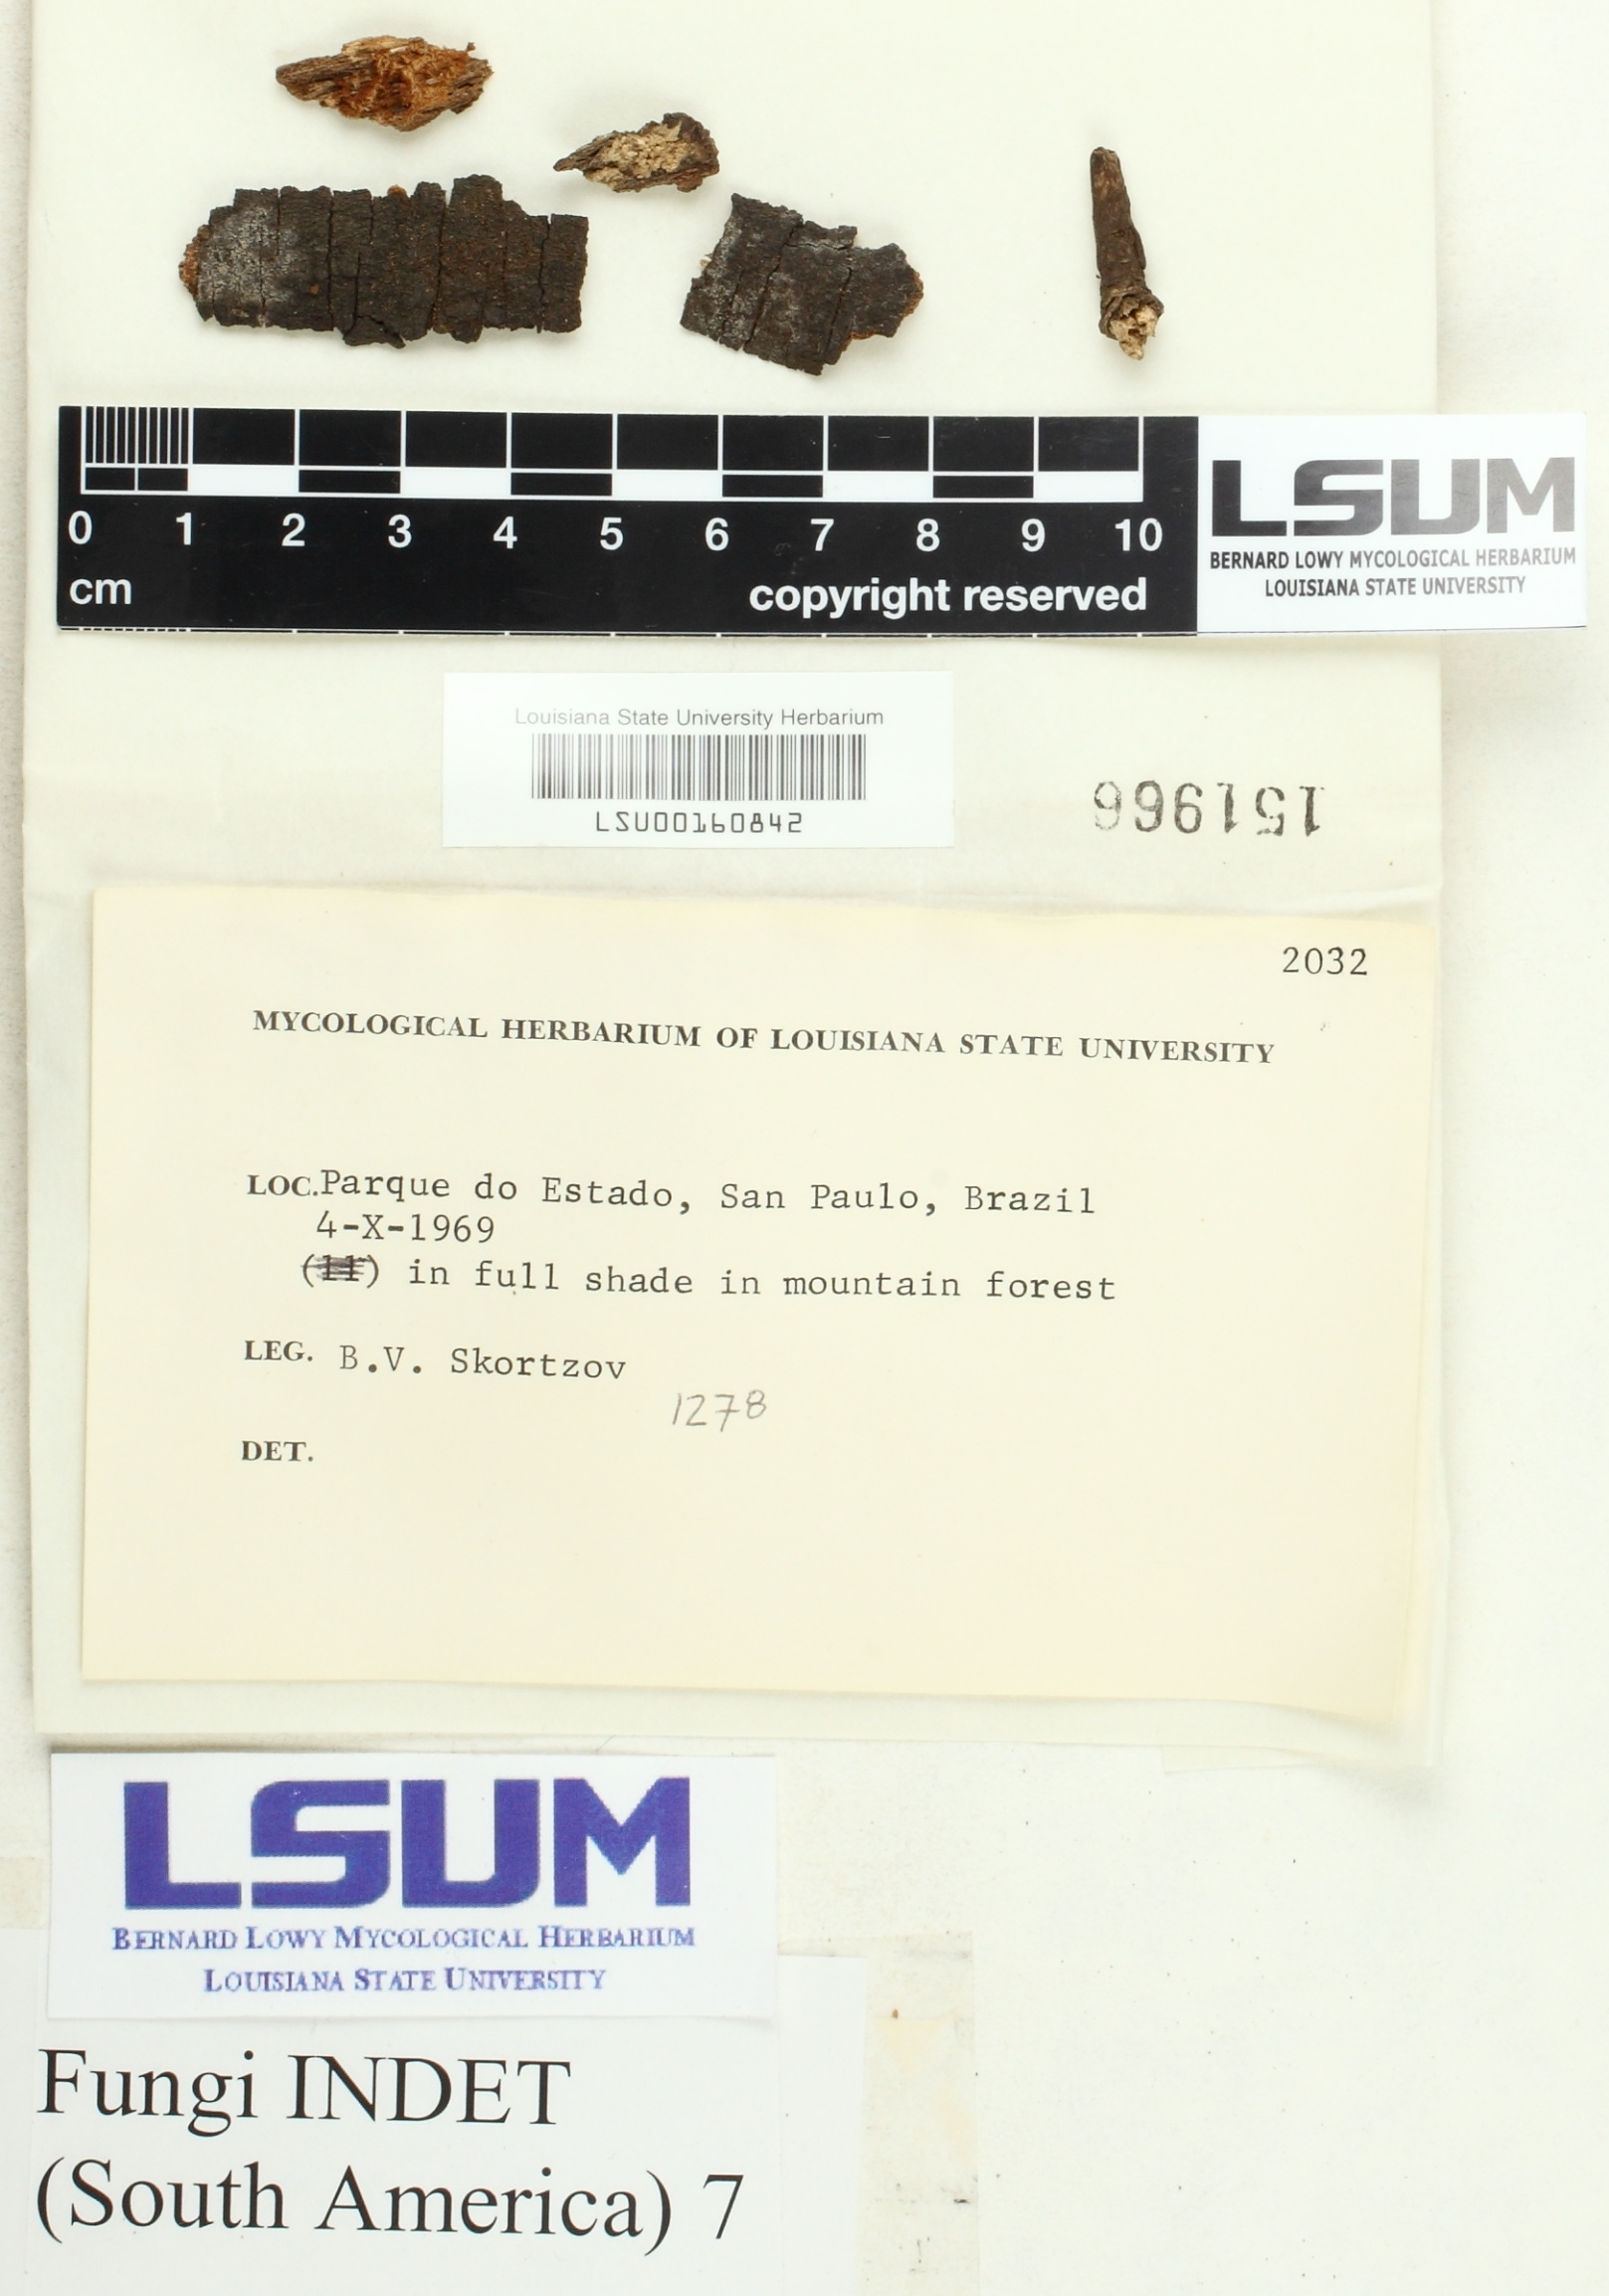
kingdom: Fungi
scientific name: Fungi
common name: Fungi
